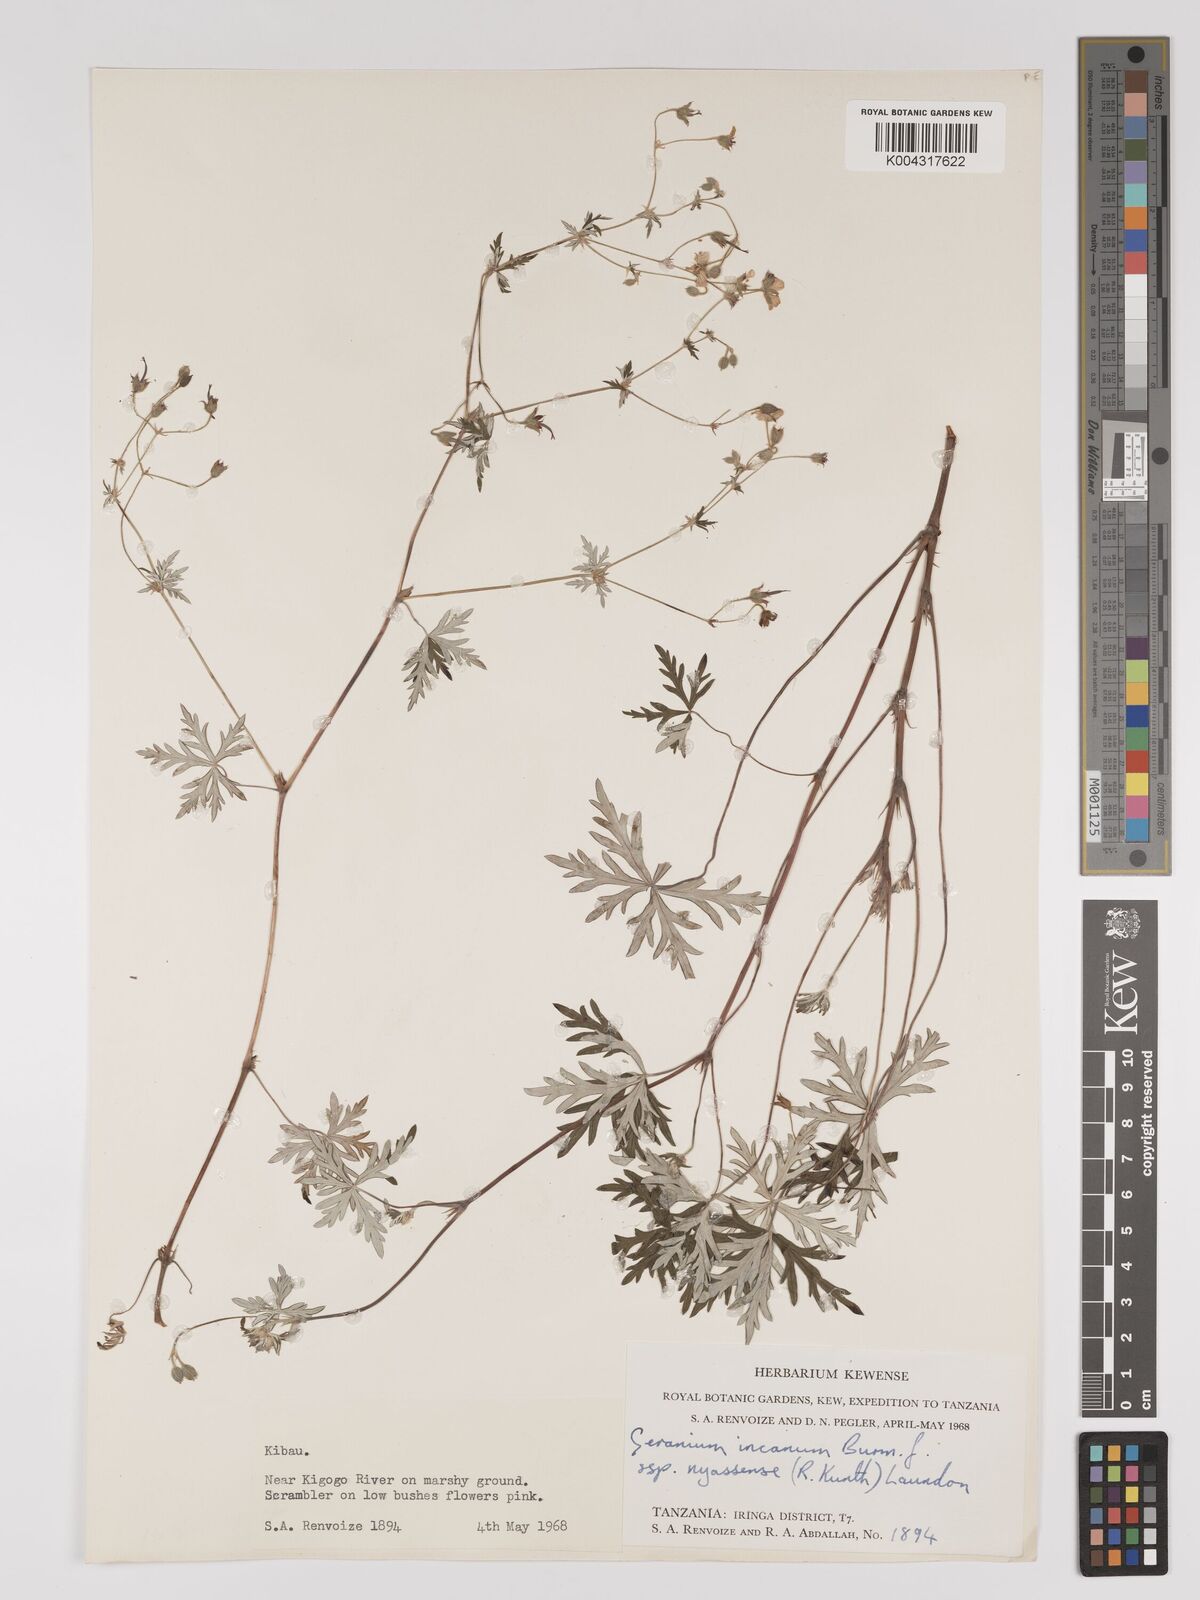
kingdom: Plantae
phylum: Tracheophyta
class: Magnoliopsida
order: Geraniales
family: Geraniaceae
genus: Geranium
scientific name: Geranium incanum
